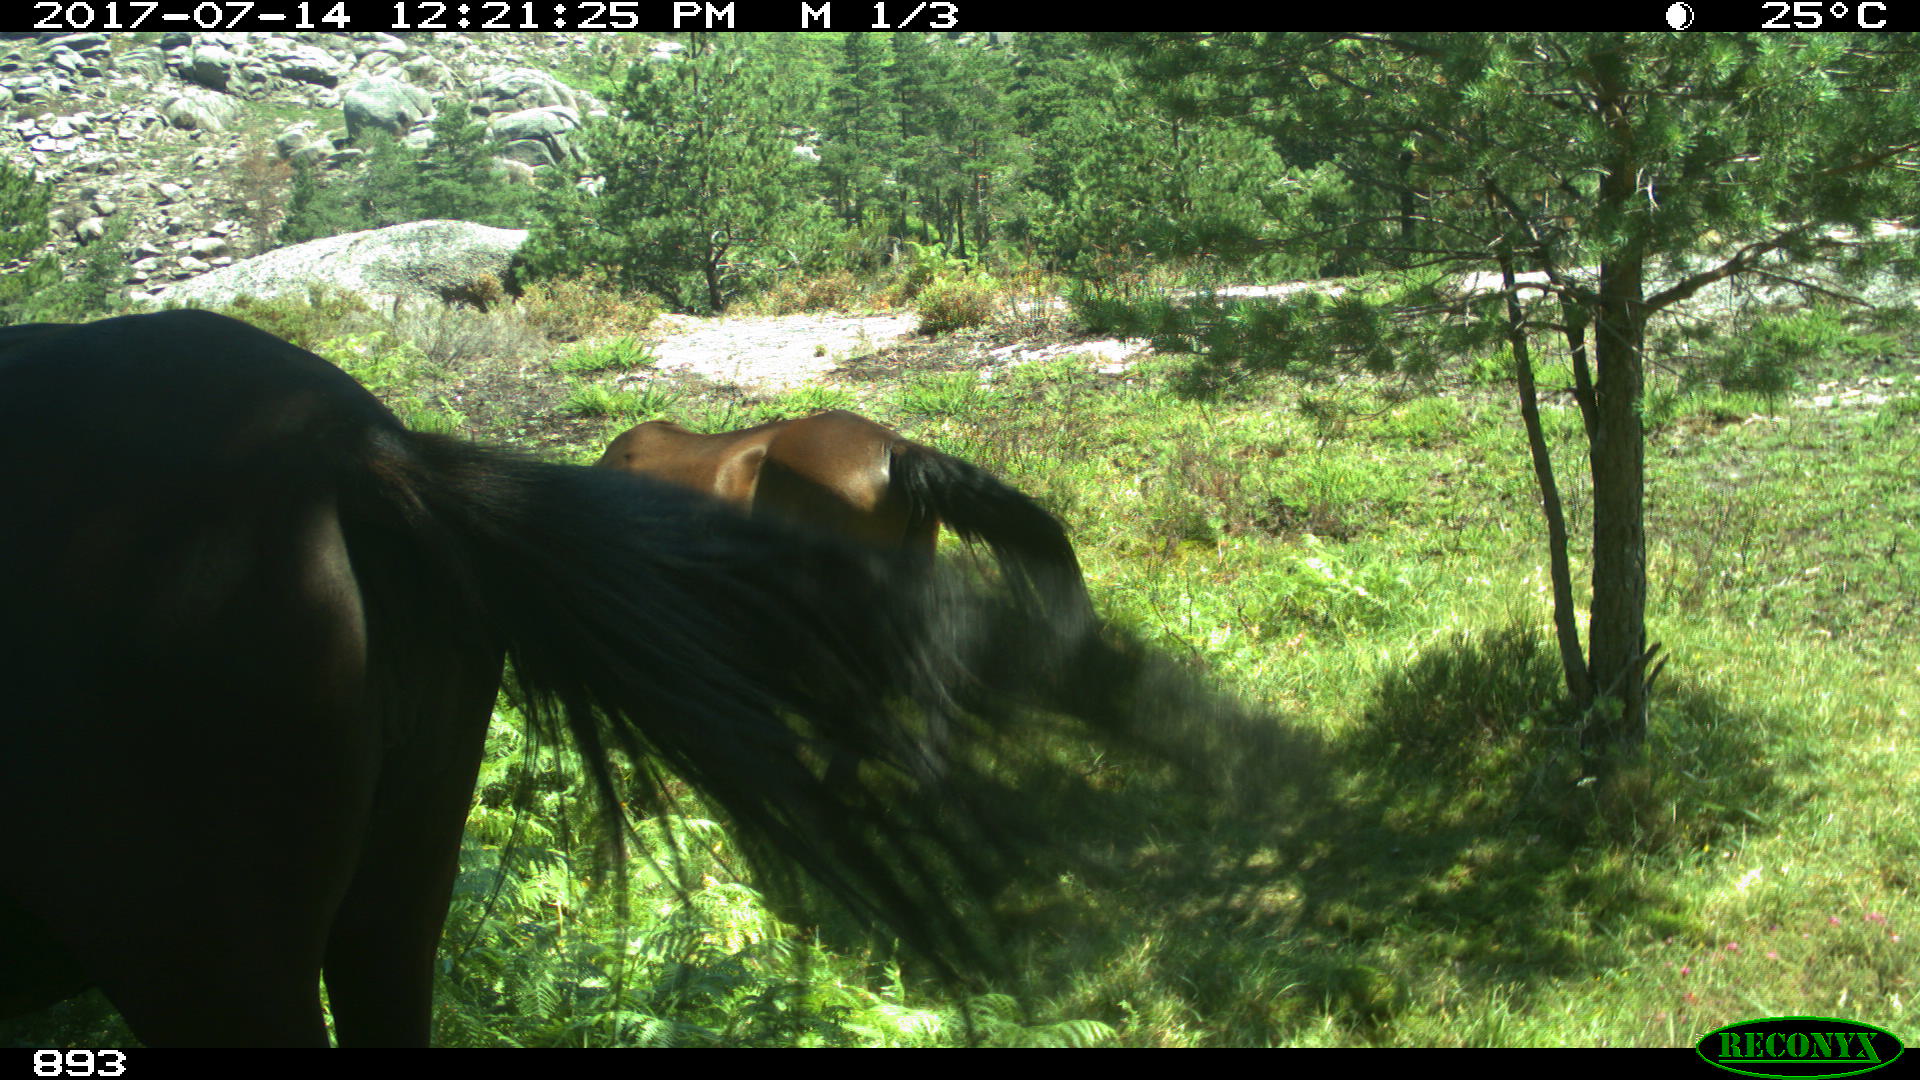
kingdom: Animalia
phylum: Chordata
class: Mammalia
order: Perissodactyla
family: Equidae
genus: Equus
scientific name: Equus caballus
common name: Horse
